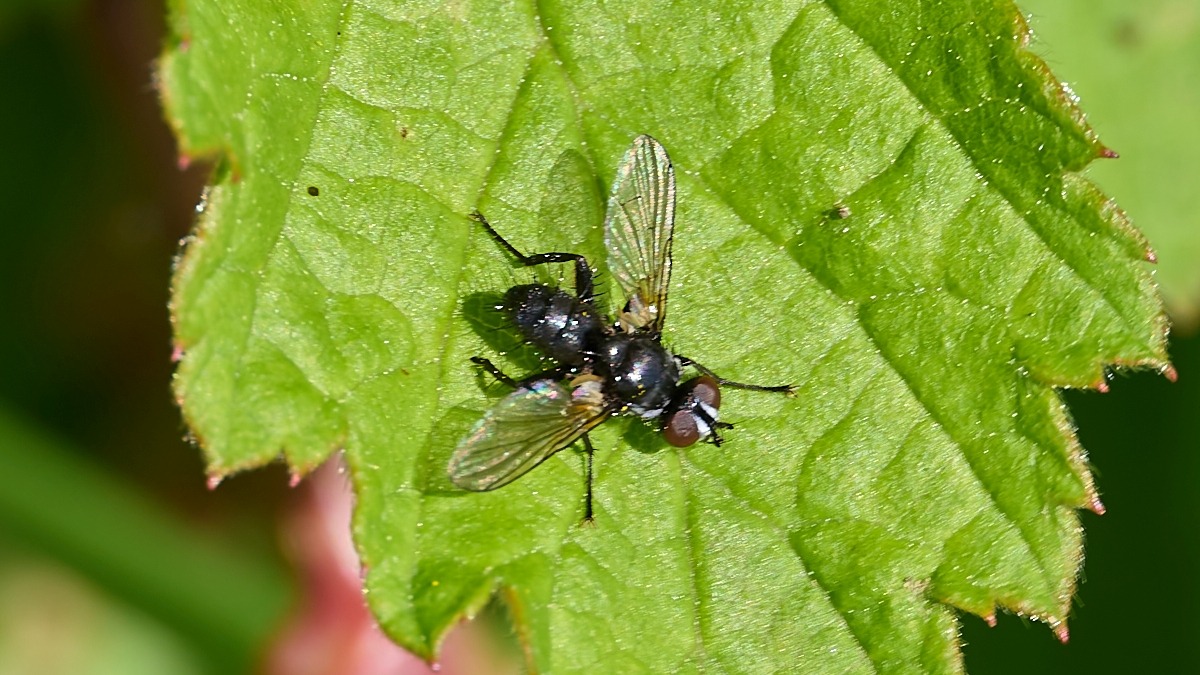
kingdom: Animalia
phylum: Arthropoda
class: Insecta
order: Diptera
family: Tachinidae
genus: Phania
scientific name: Phania funesta
